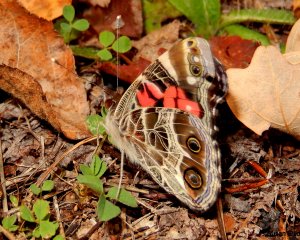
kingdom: Animalia
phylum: Arthropoda
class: Insecta
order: Lepidoptera
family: Nymphalidae
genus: Vanessa
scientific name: Vanessa virginiensis
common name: American Lady
